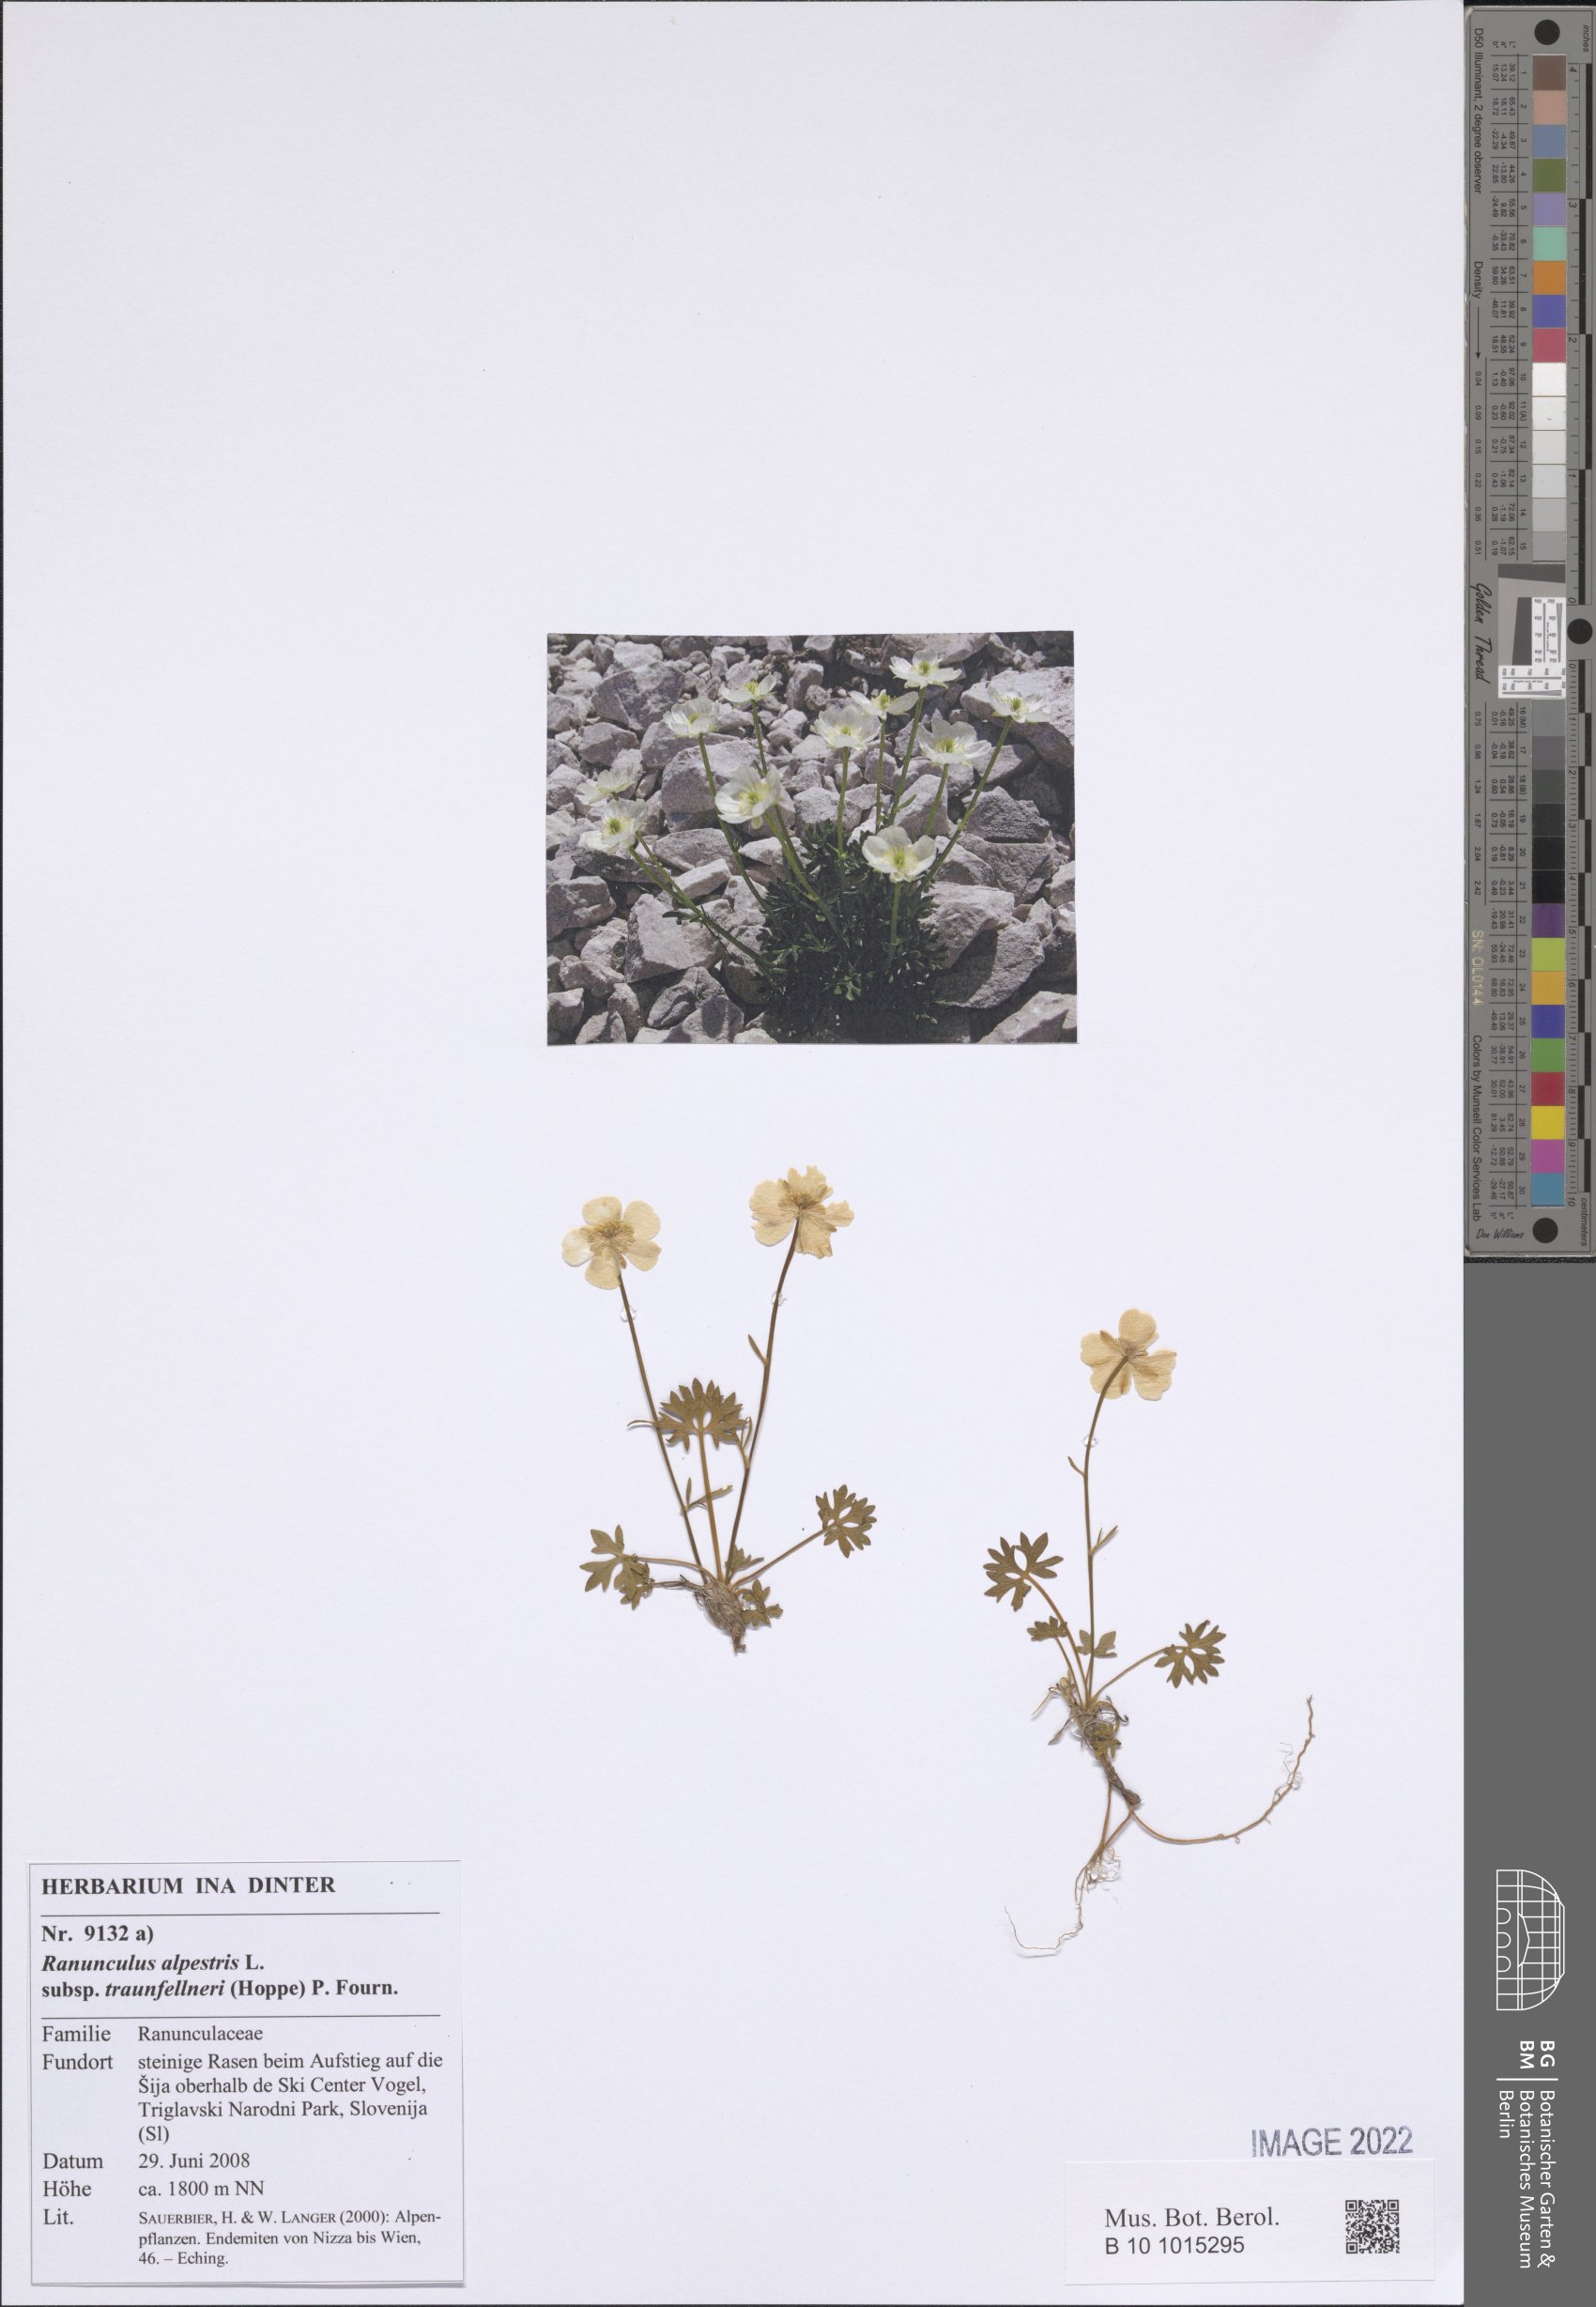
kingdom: Plantae
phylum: Tracheophyta
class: Magnoliopsida
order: Ranunculales
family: Ranunculaceae
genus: Ranunculus
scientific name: Ranunculus traunfellneri
